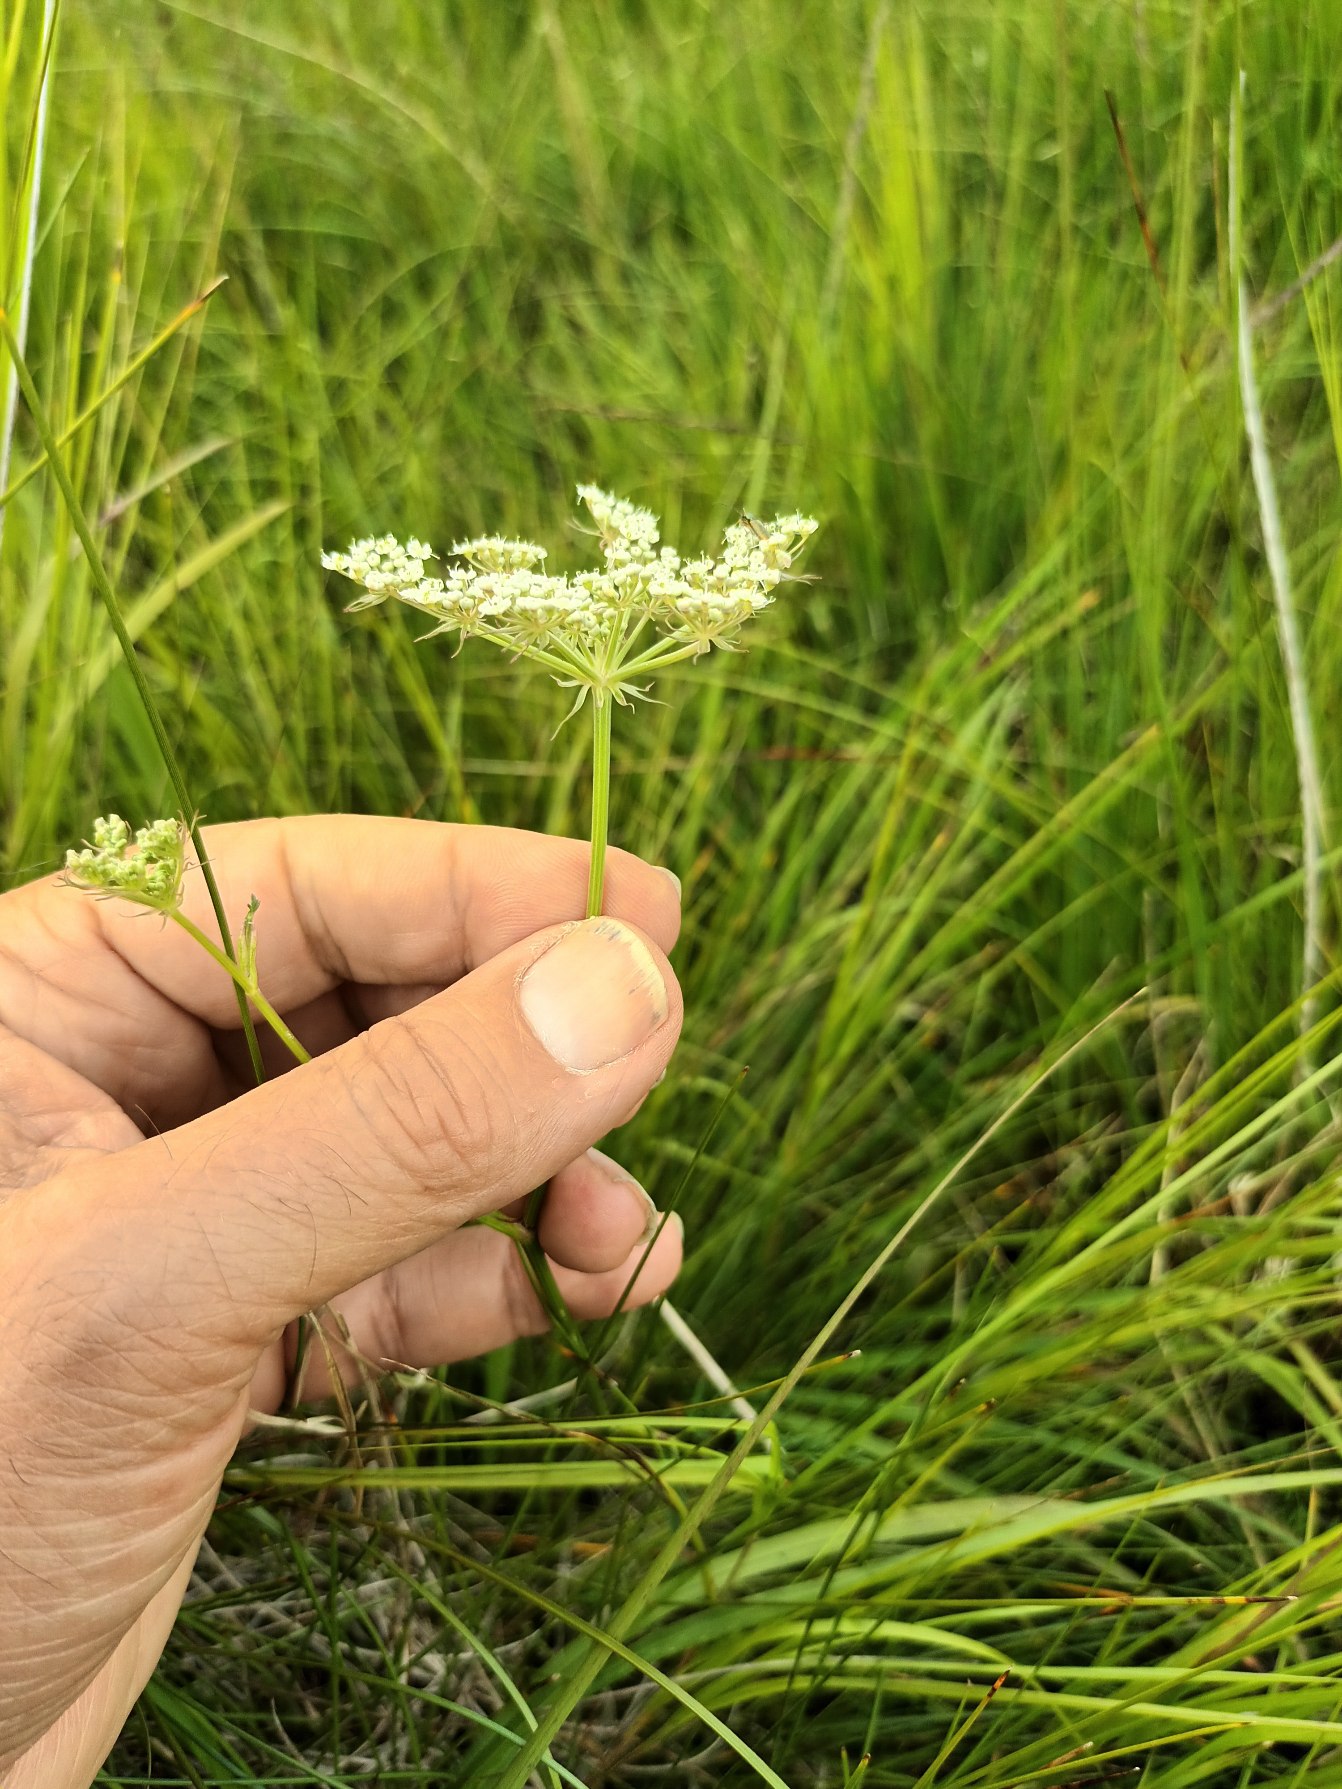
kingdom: Plantae
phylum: Tracheophyta
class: Magnoliopsida
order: Apiales
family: Apiaceae
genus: Thysselinum
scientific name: Thysselinum palustre
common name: Kær-svovlrod
